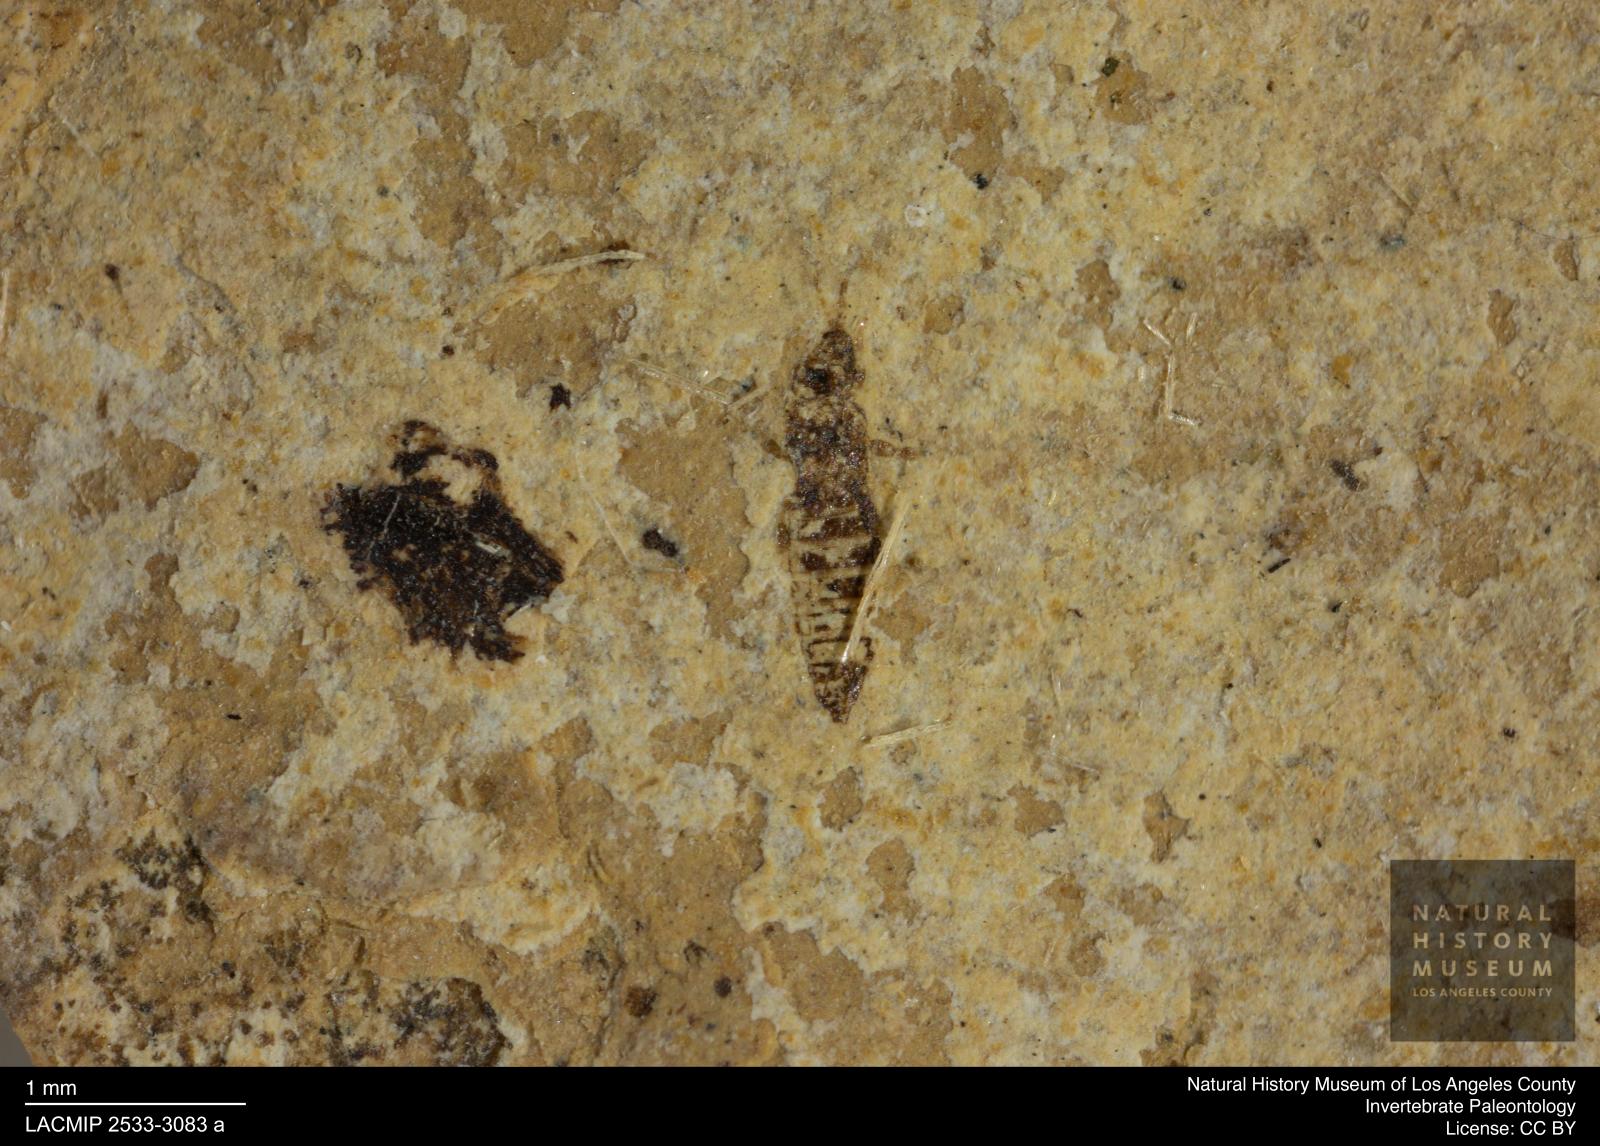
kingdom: Animalia
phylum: Arthropoda
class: Insecta
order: Thysanoptera
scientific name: Thysanoptera
